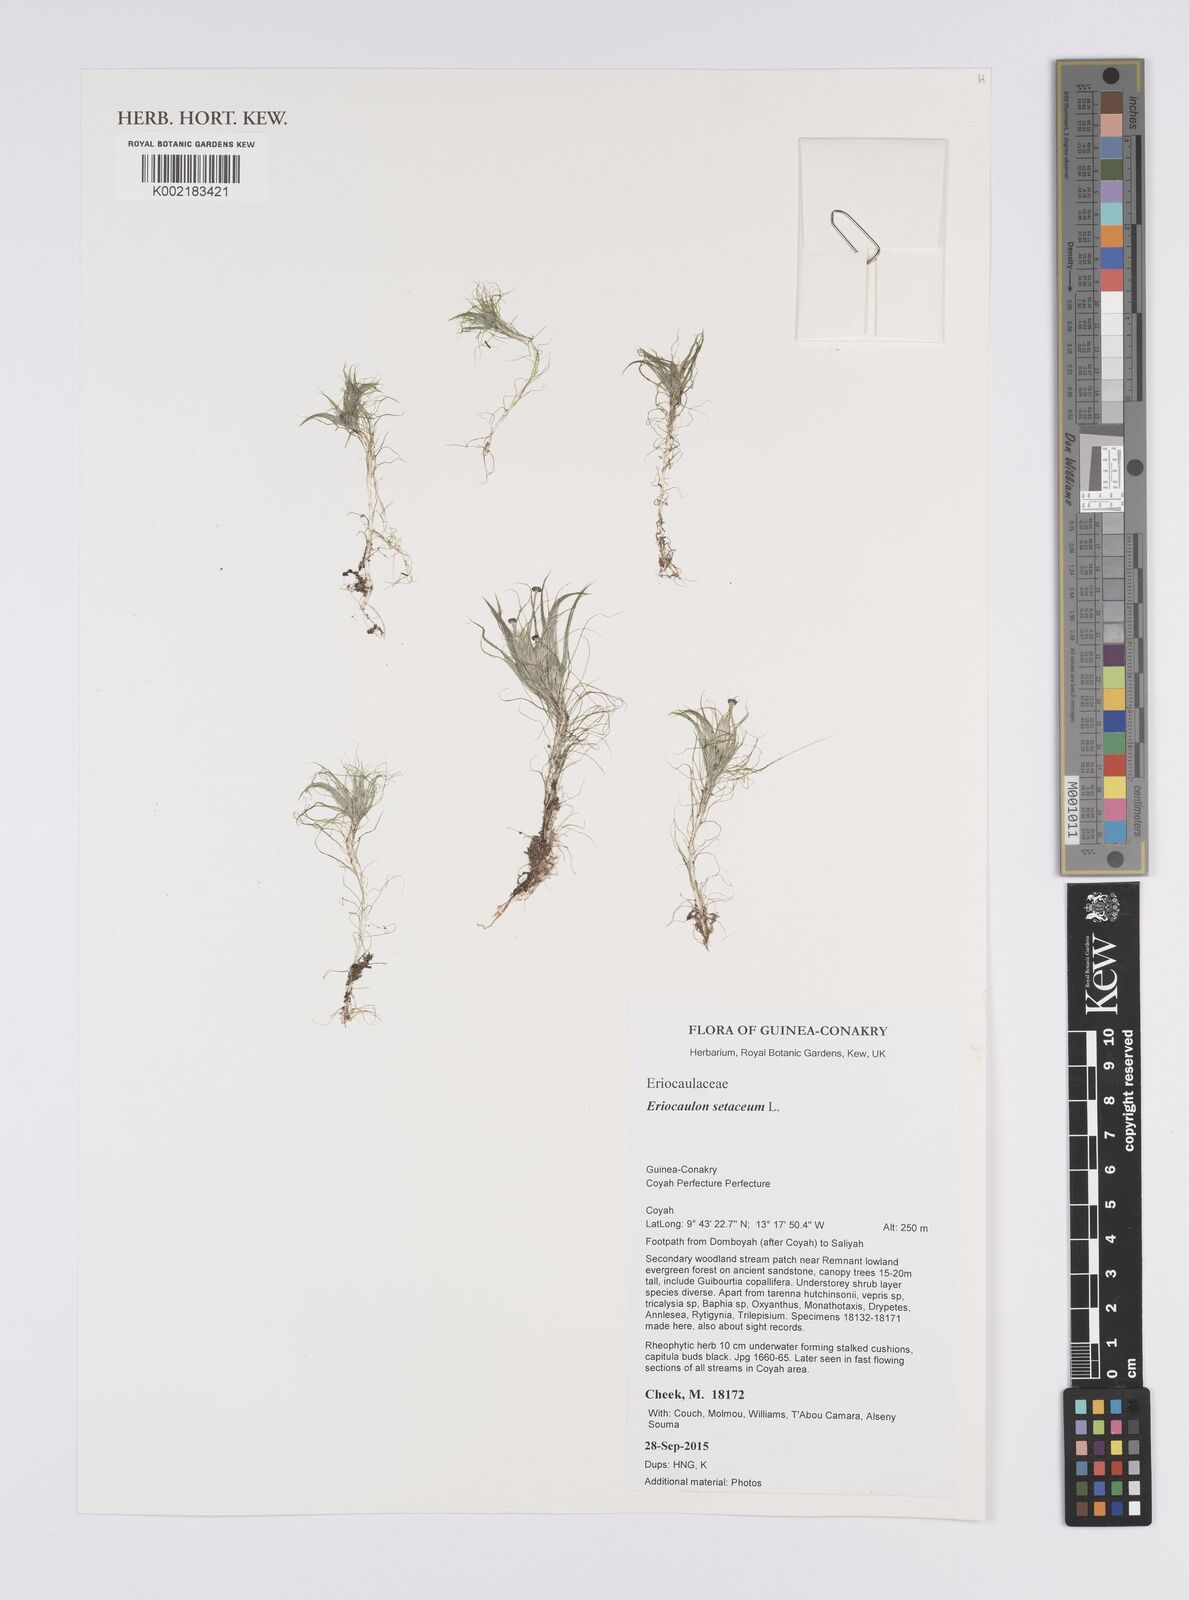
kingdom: Plantae
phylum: Tracheophyta
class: Liliopsida
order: Poales
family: Eriocaulaceae
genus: Eriocaulon
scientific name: Eriocaulon setaceum
